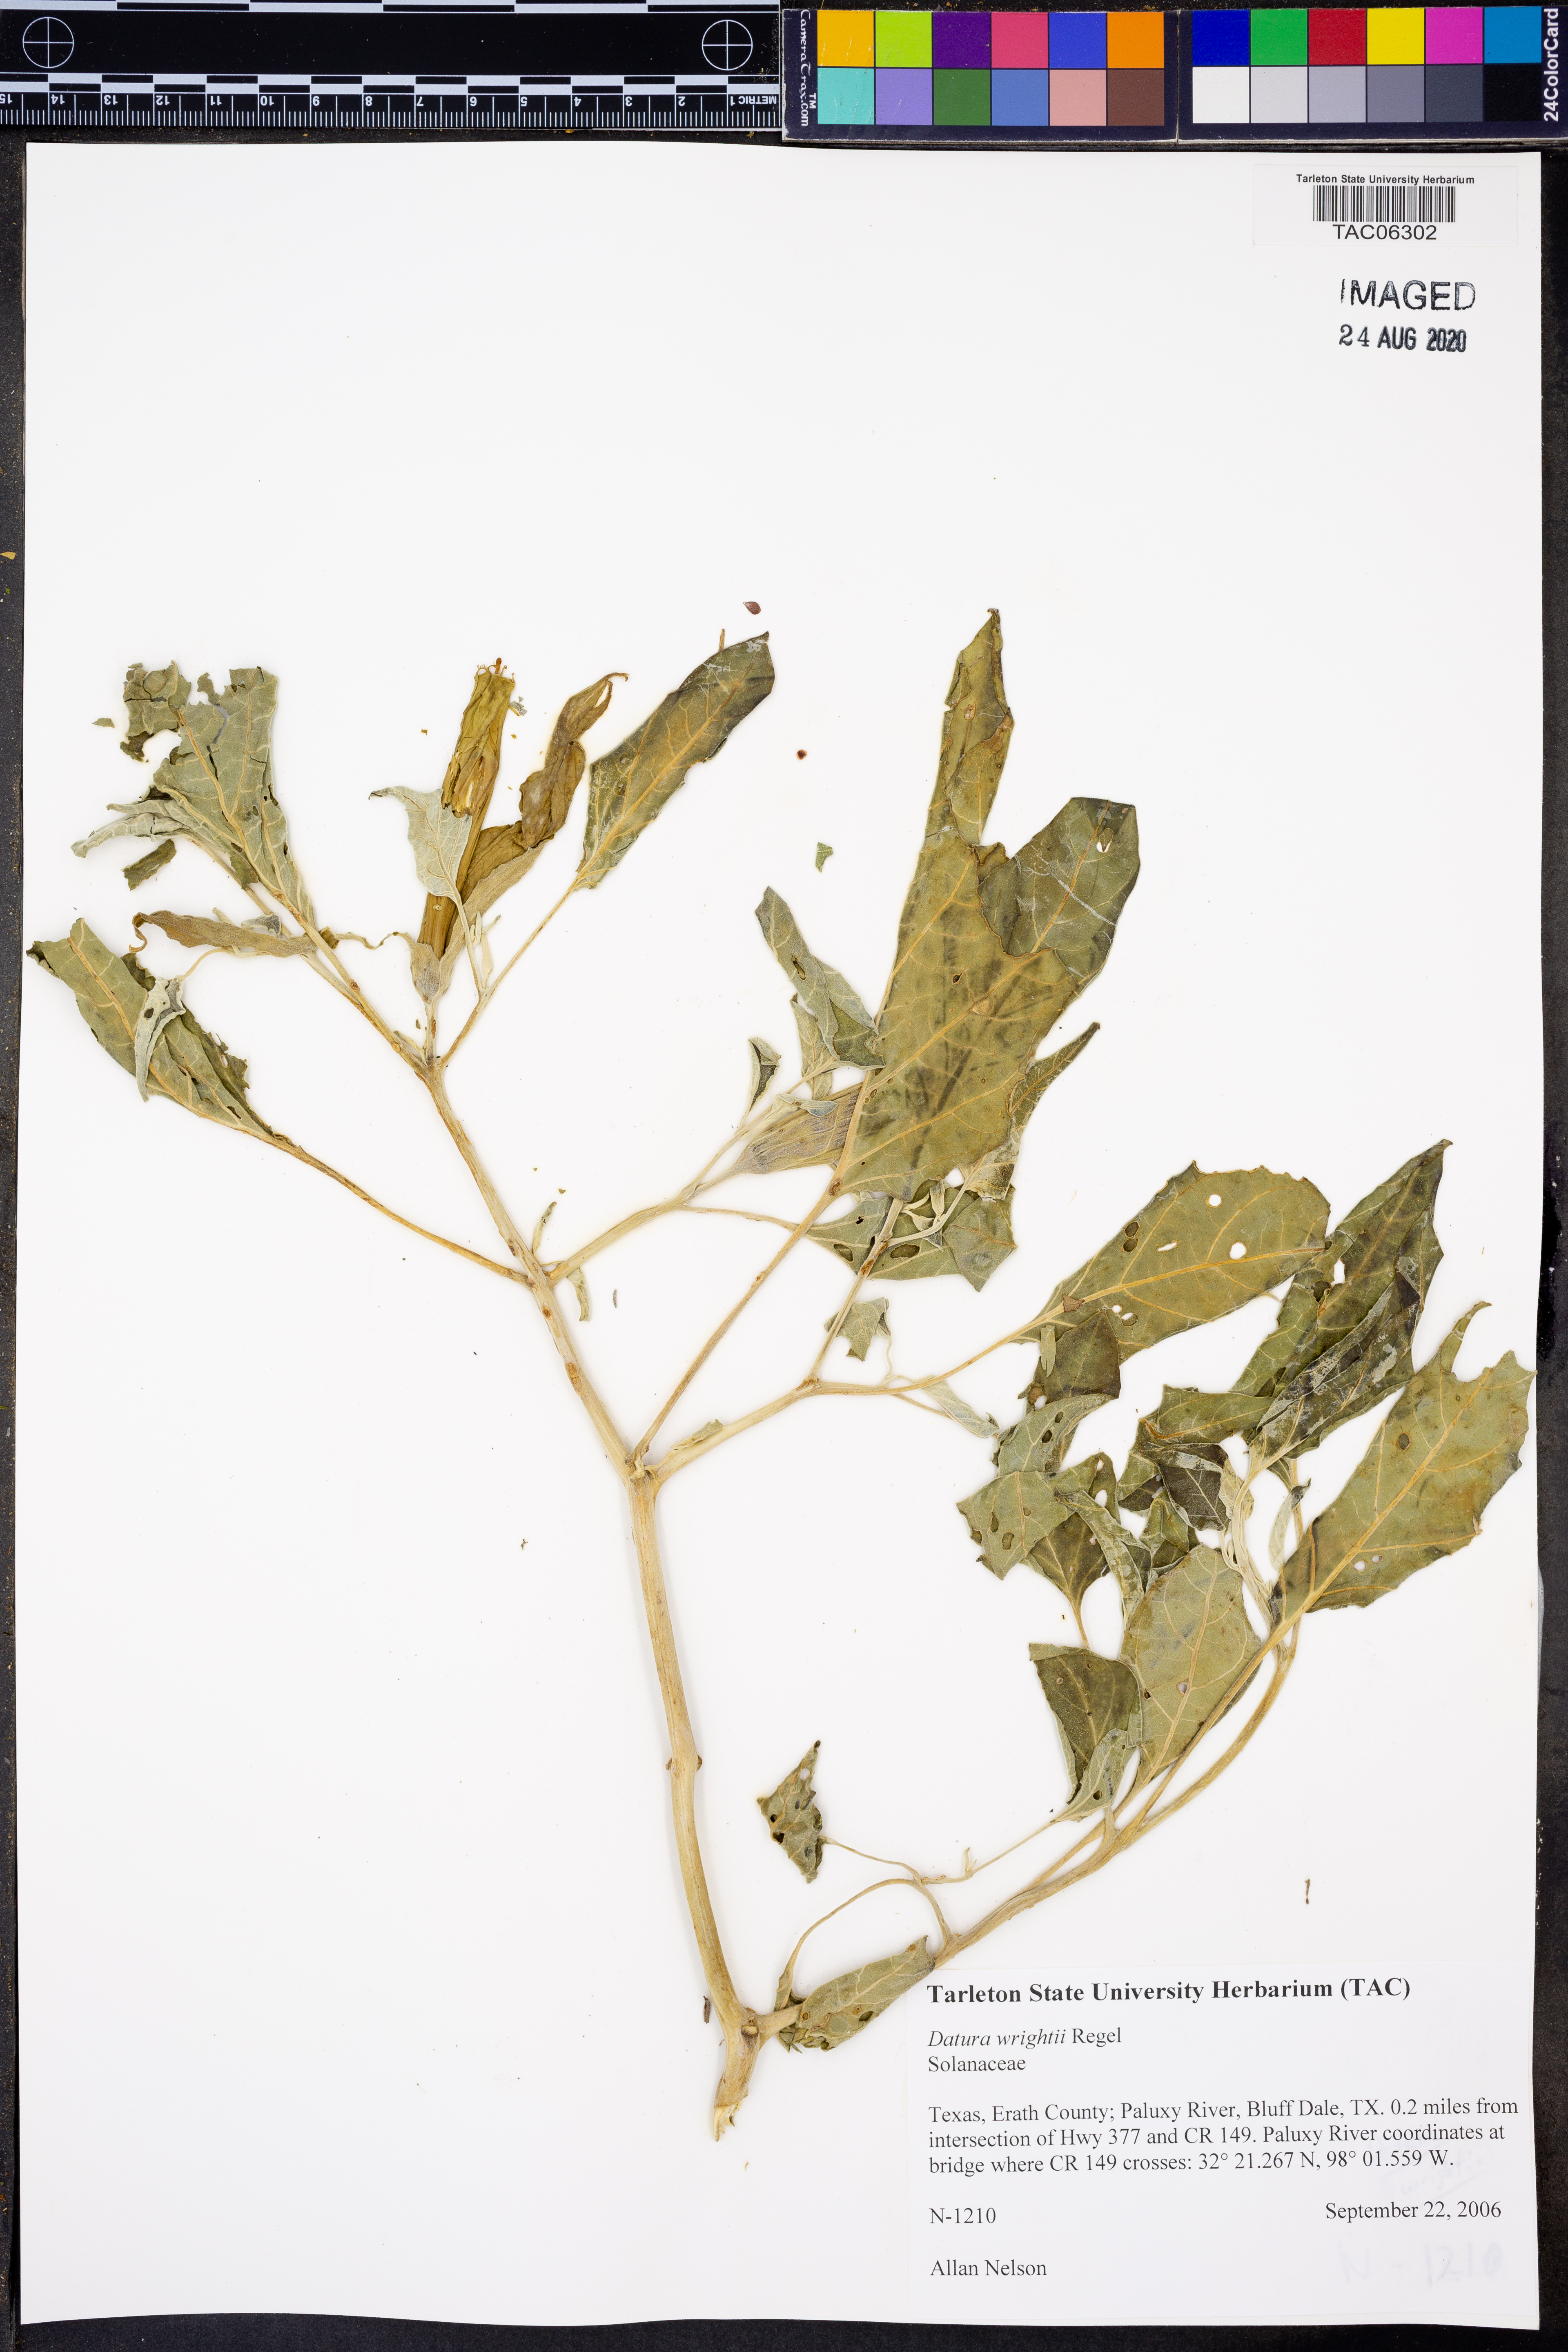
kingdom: Plantae
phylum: Tracheophyta
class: Magnoliopsida
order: Solanales
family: Solanaceae
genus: Datura
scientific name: Datura wrightii
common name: Sacred thorn-apple
